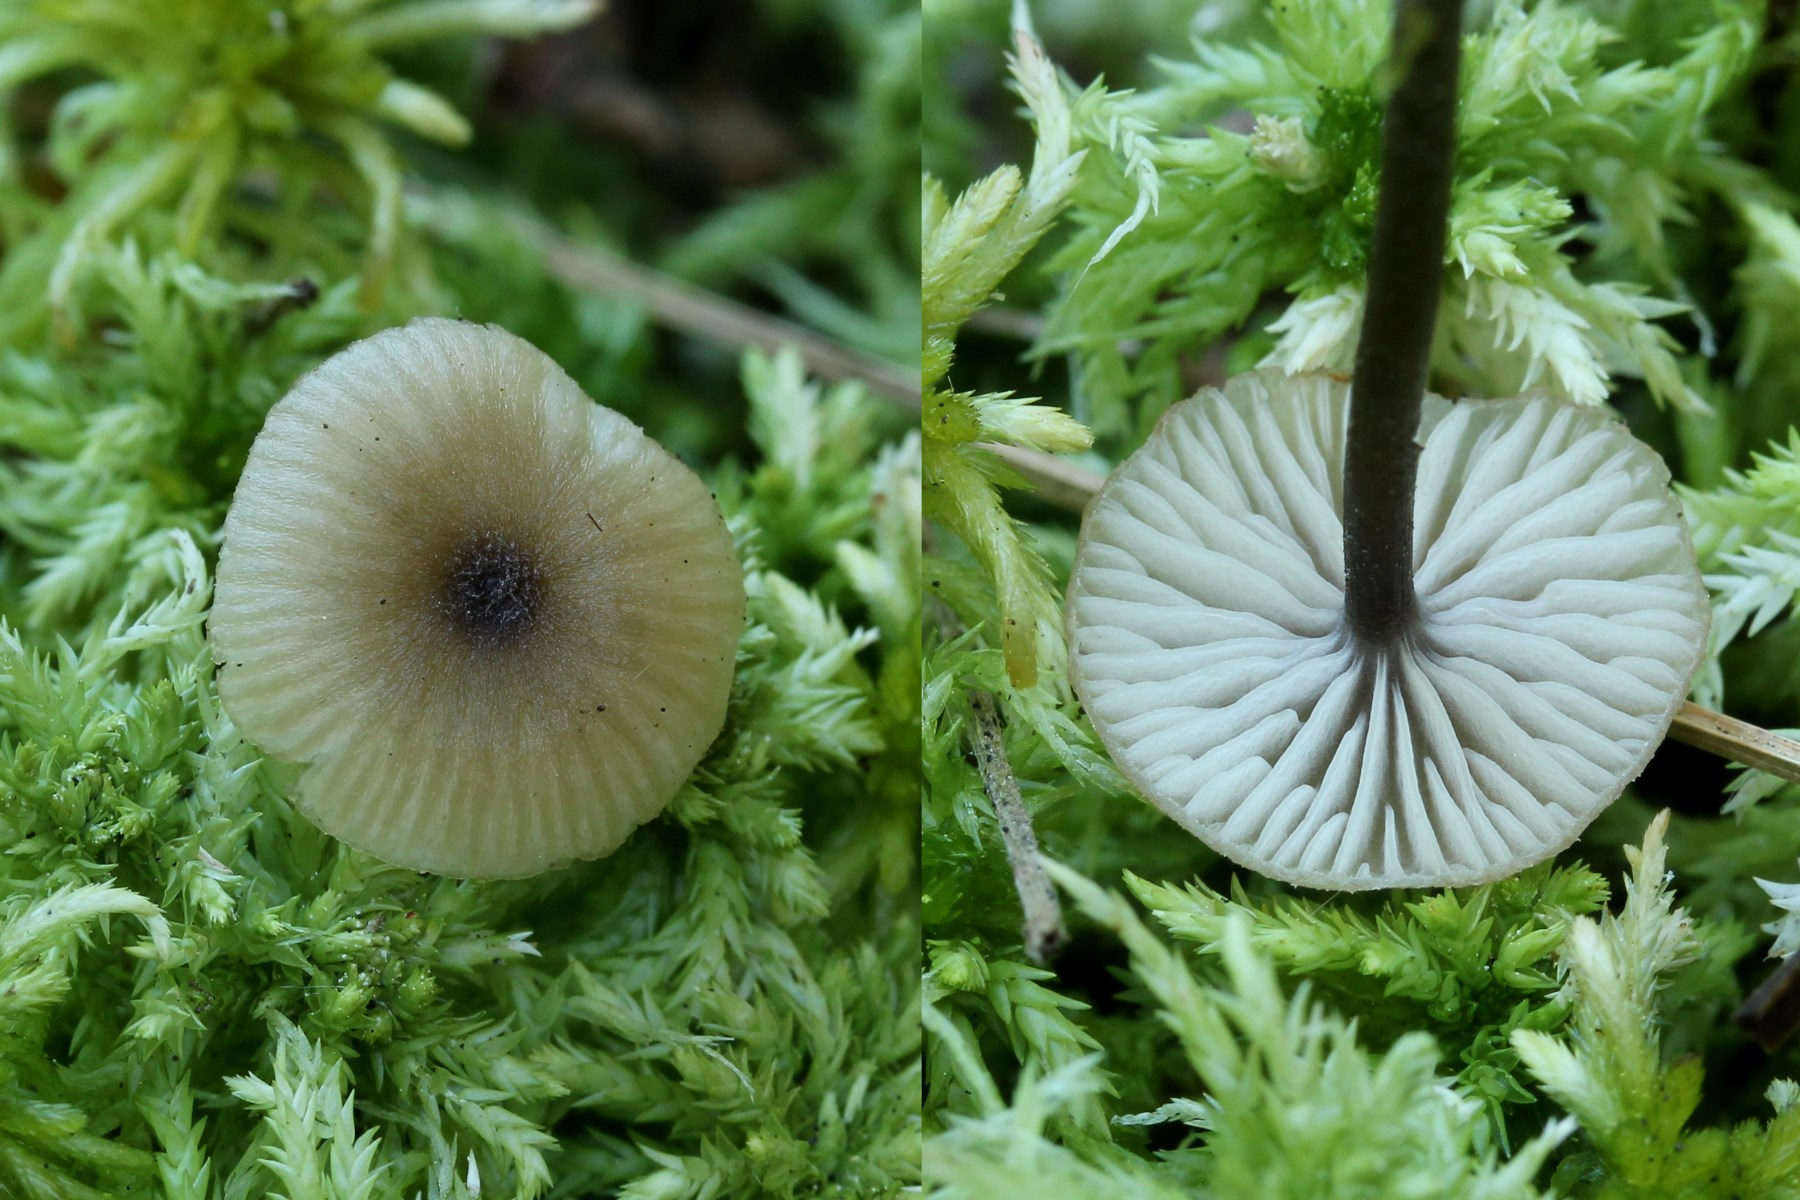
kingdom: Fungi
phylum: Basidiomycota
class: Agaricomycetes
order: Agaricales
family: Lyophyllaceae
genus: Sphagnurus
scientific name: Sphagnurus paluster
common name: tørvemos-gråblad
